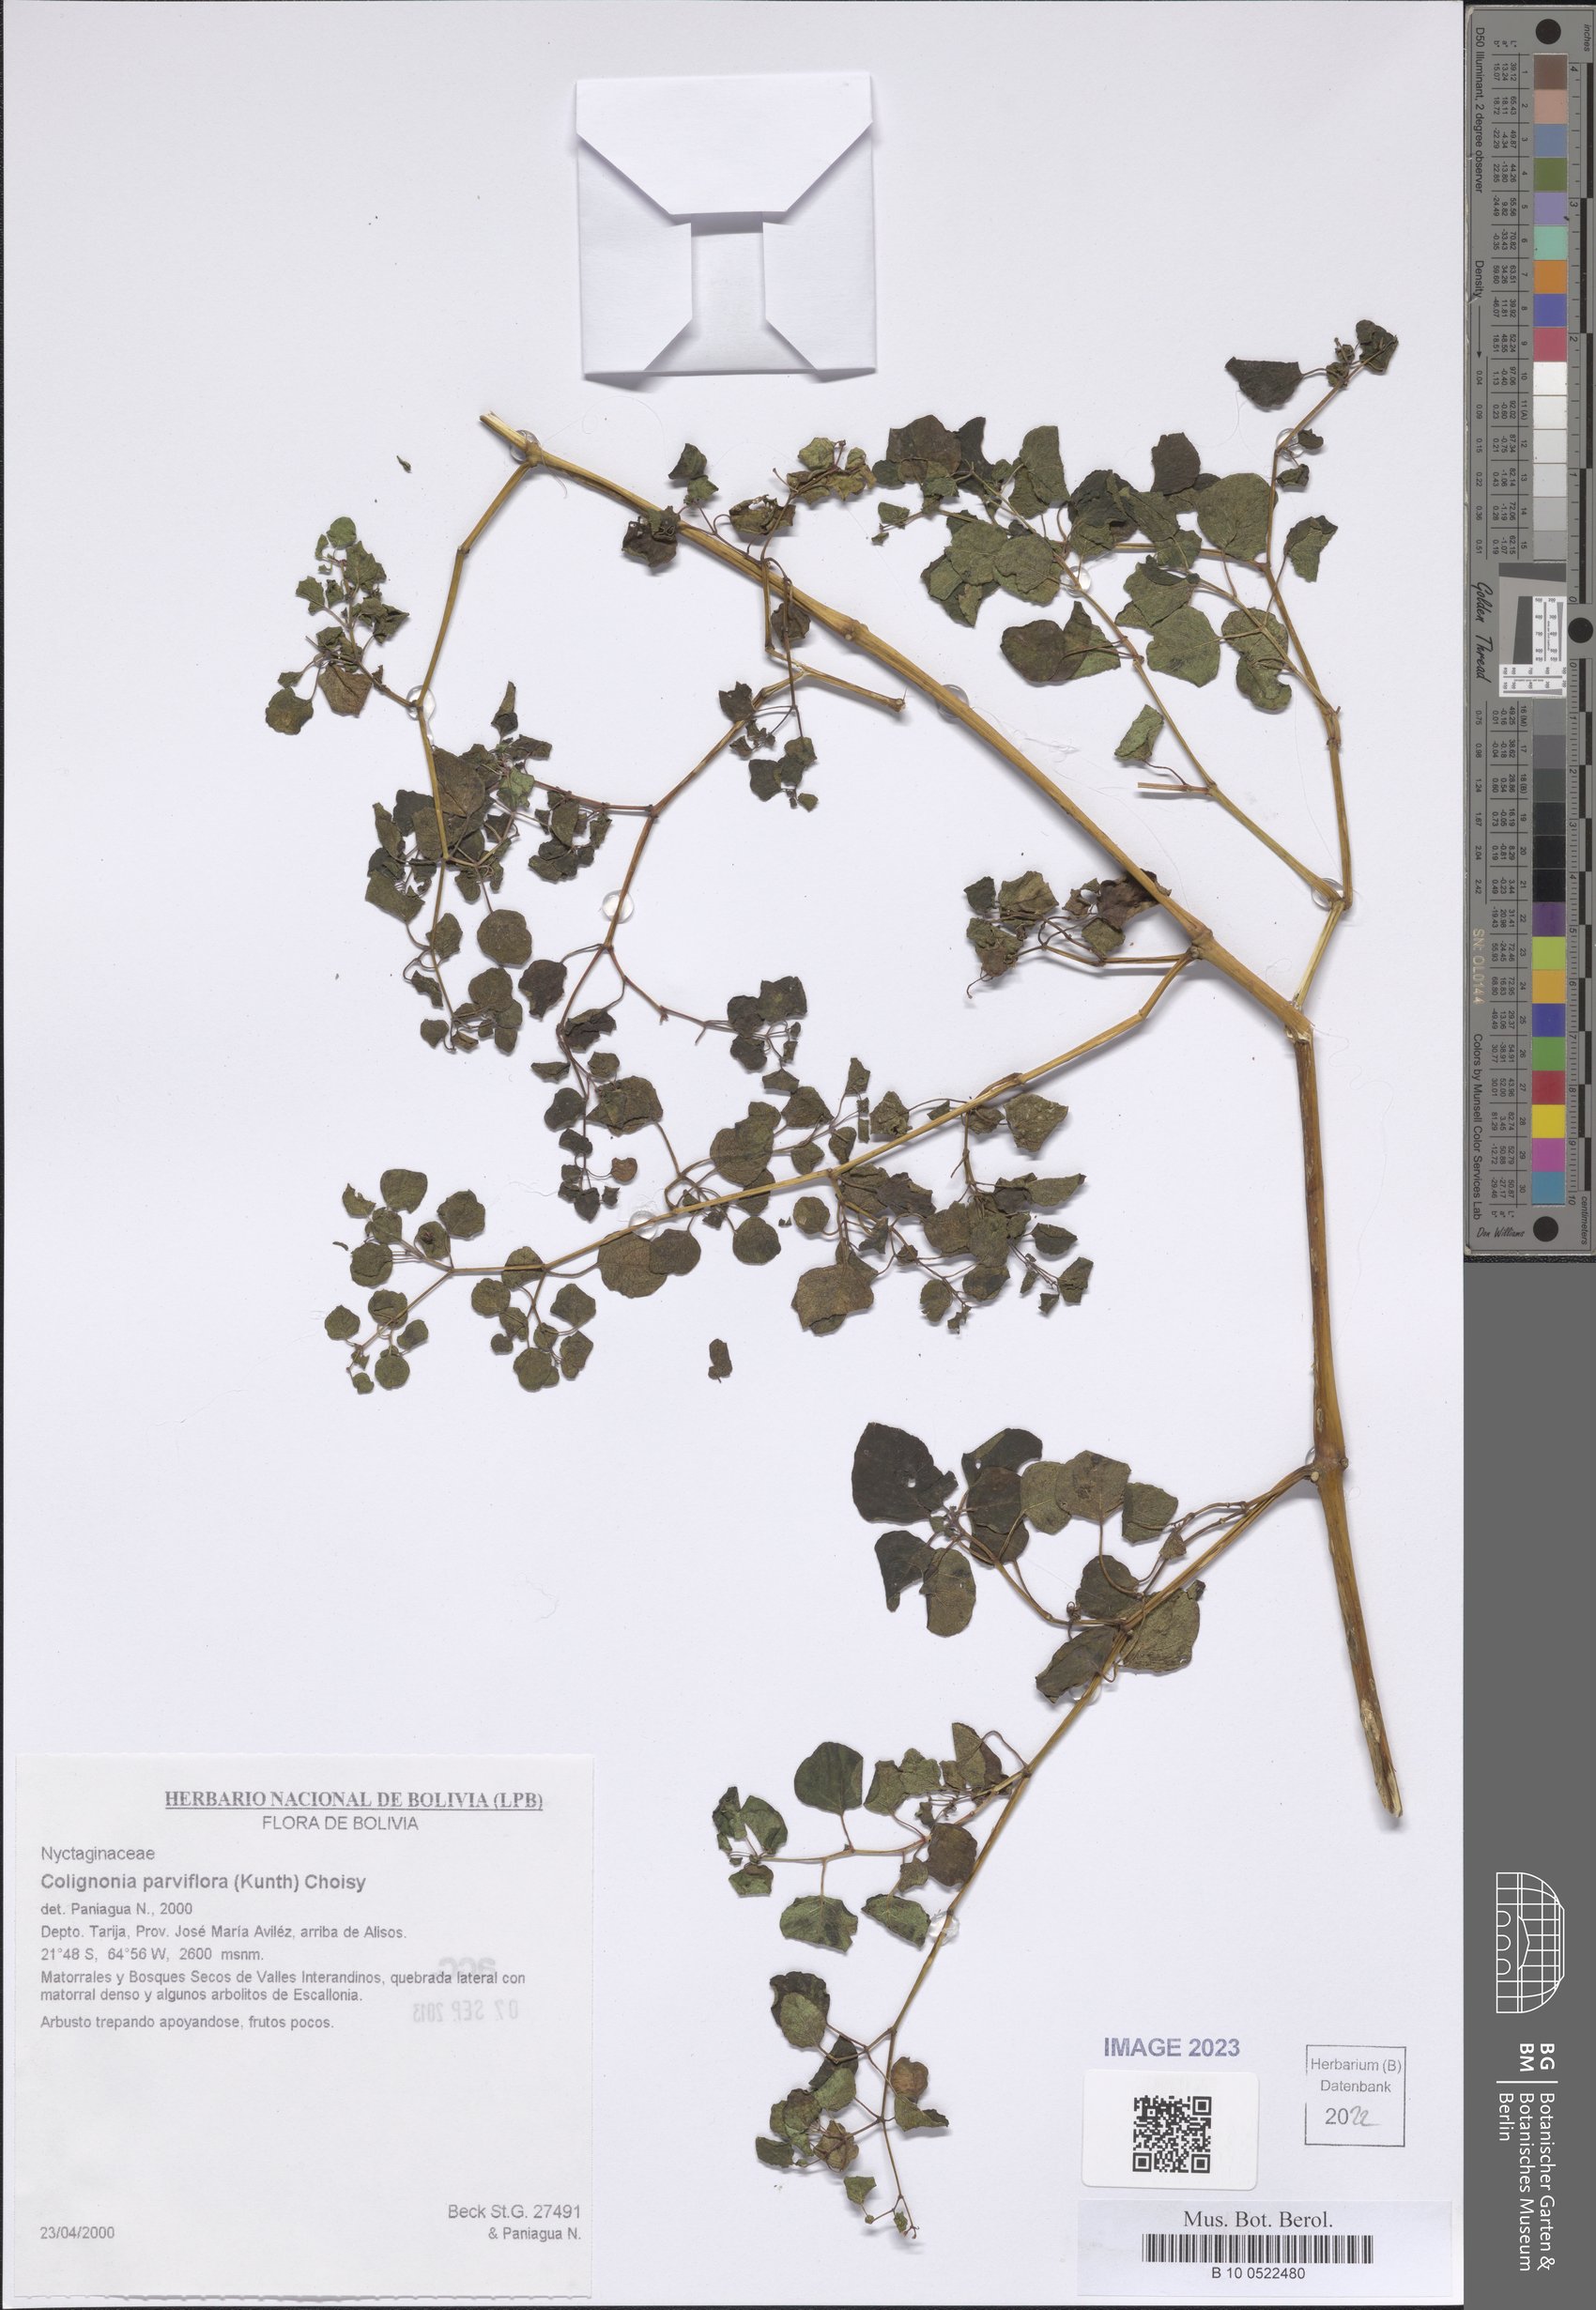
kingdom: Plantae
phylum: Tracheophyta
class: Magnoliopsida
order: Caryophyllales
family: Nyctaginaceae
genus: Colignonia
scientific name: Colignonia parviflora
